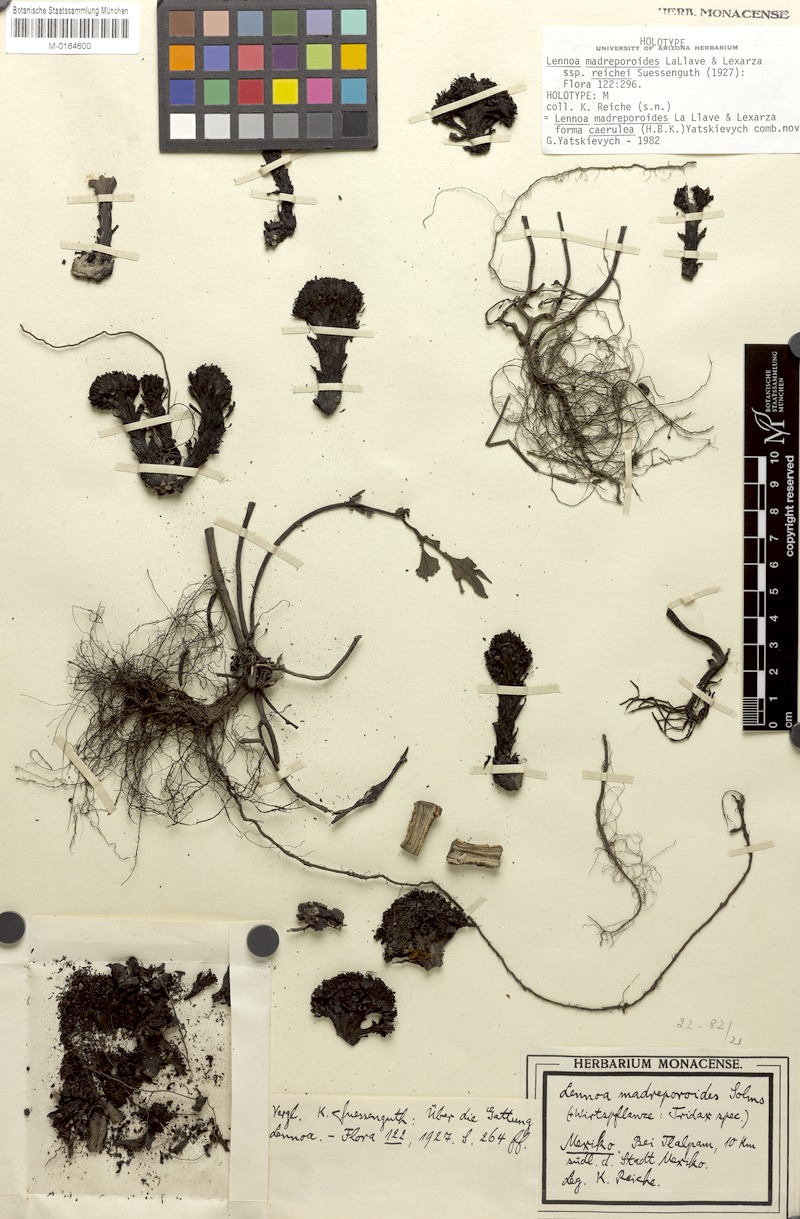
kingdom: Plantae
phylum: Tracheophyta
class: Magnoliopsida
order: Boraginales
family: Lennoaceae
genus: Lennoa
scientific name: Lennoa madreporoides
